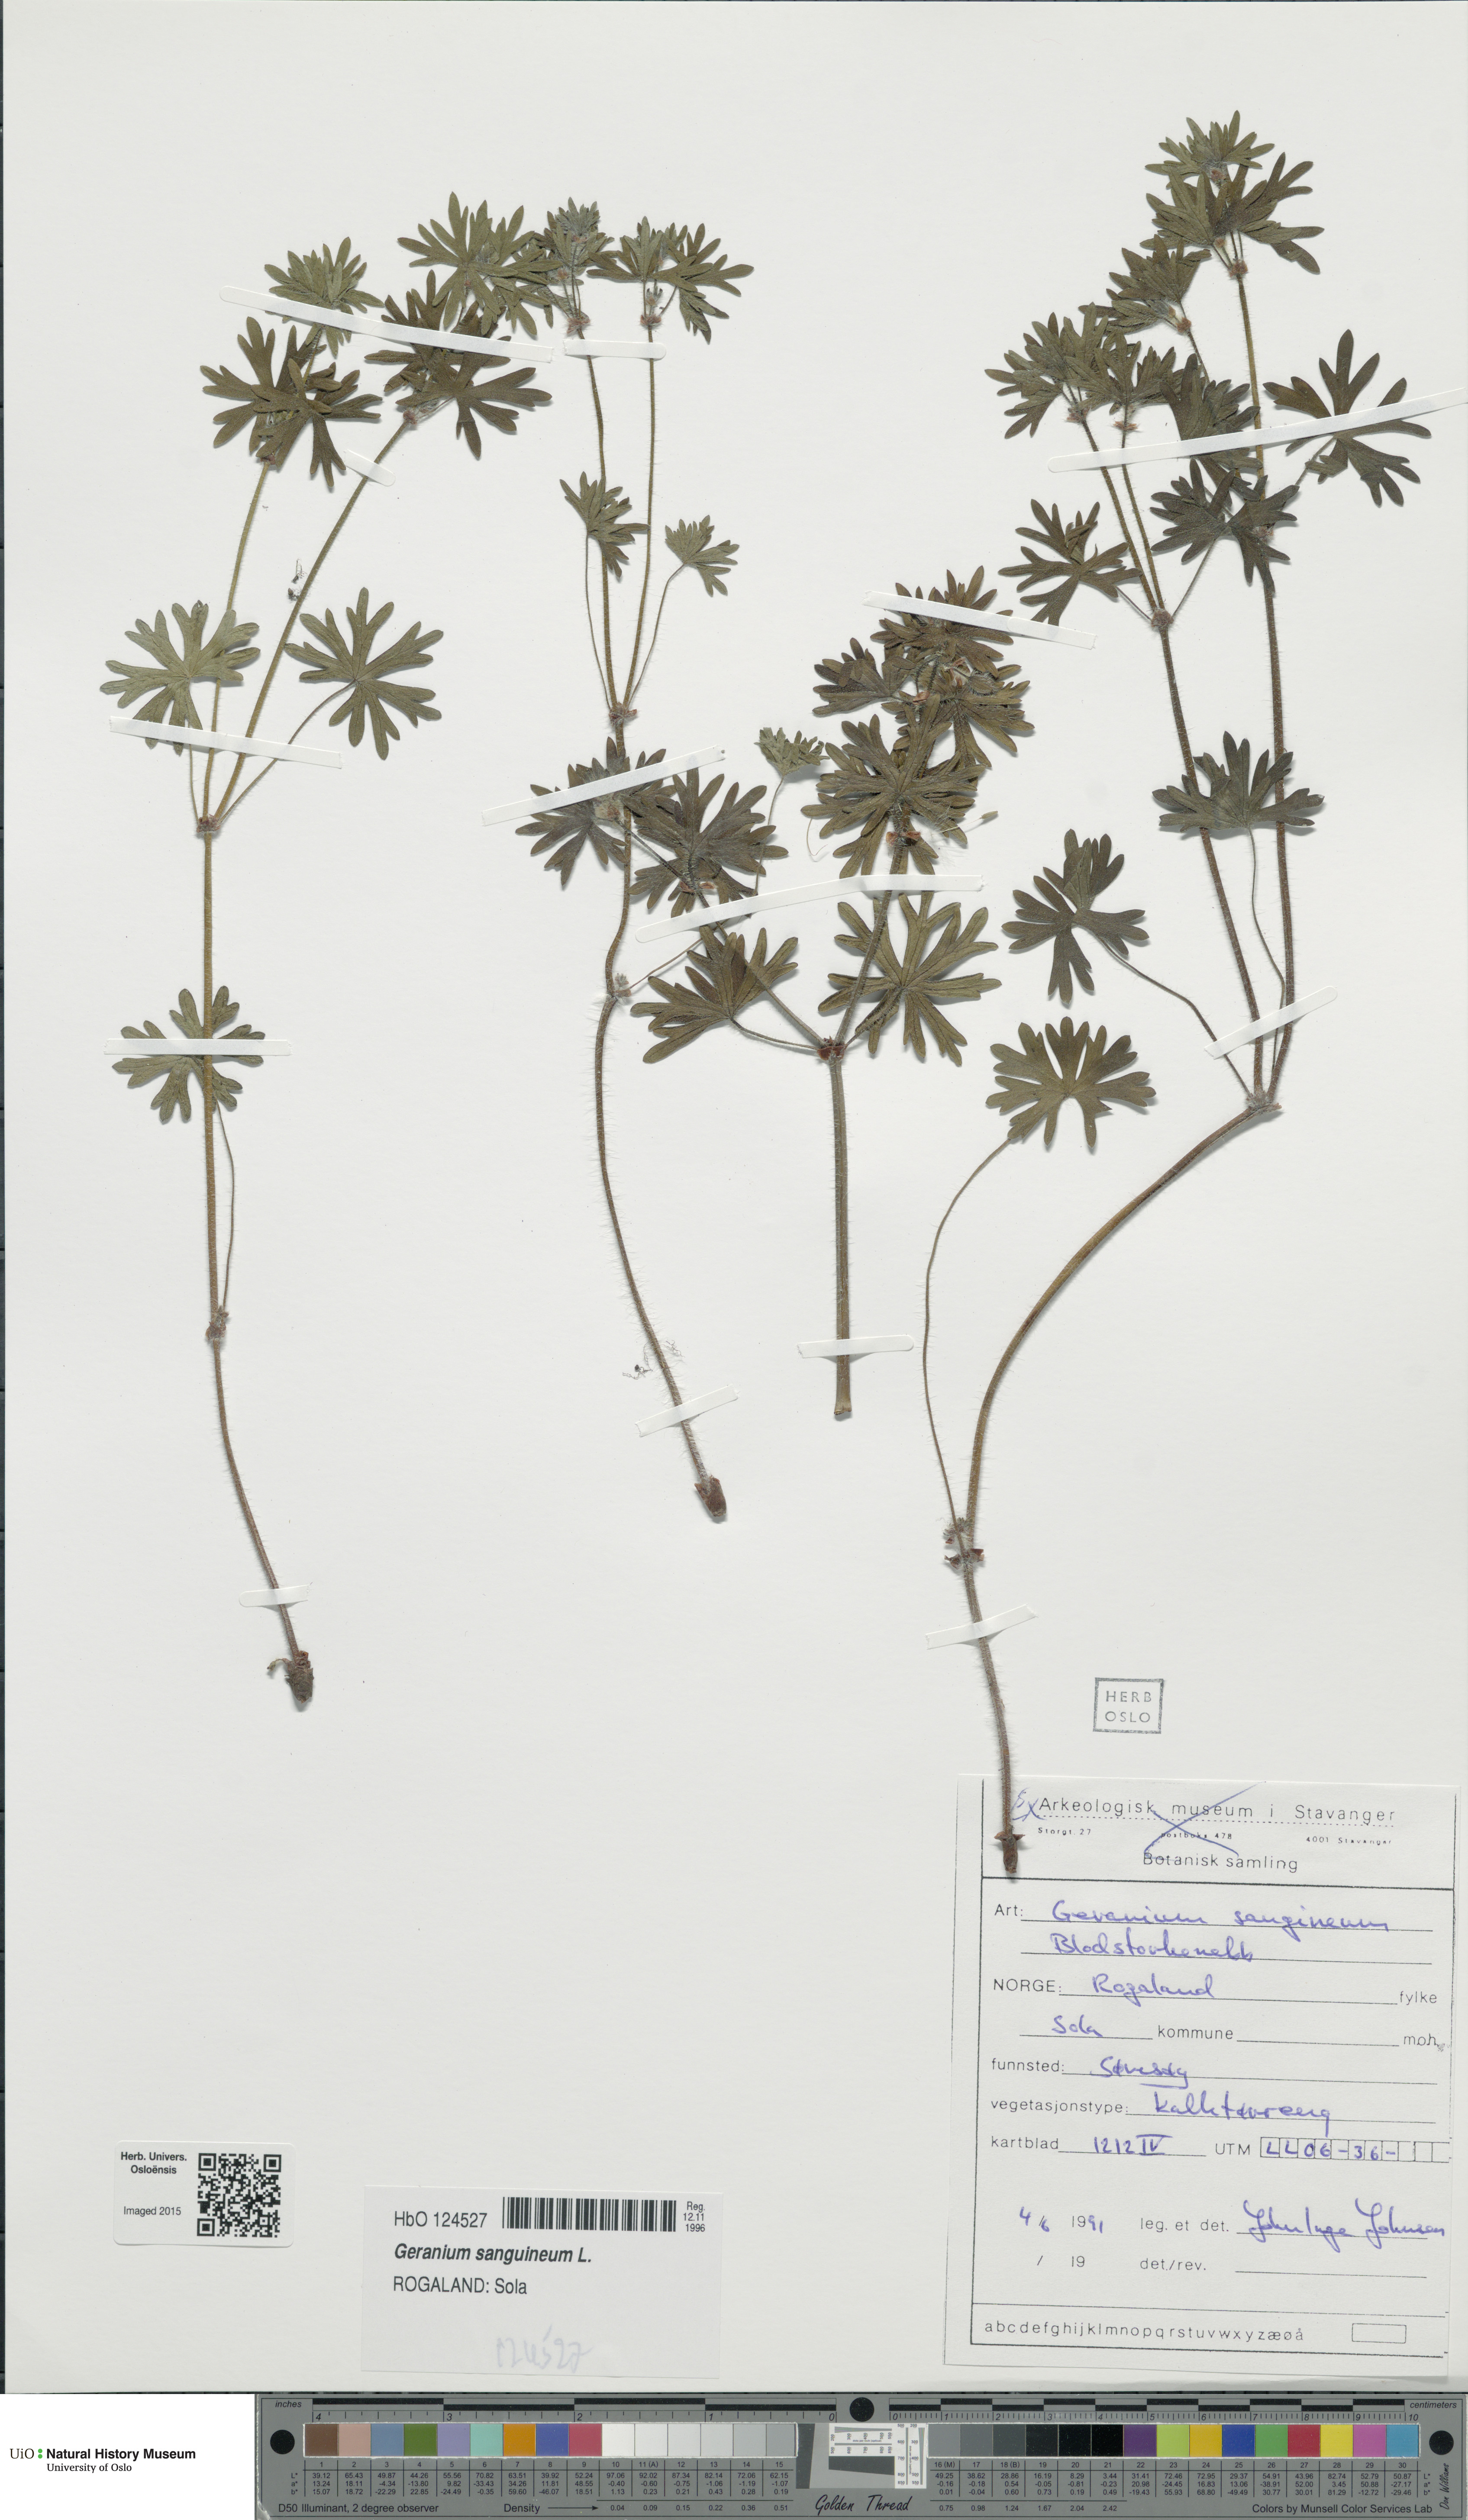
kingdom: Plantae
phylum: Tracheophyta
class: Magnoliopsida
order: Geraniales
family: Geraniaceae
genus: Geranium
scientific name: Geranium sanguineum
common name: Bloody crane's-bill
